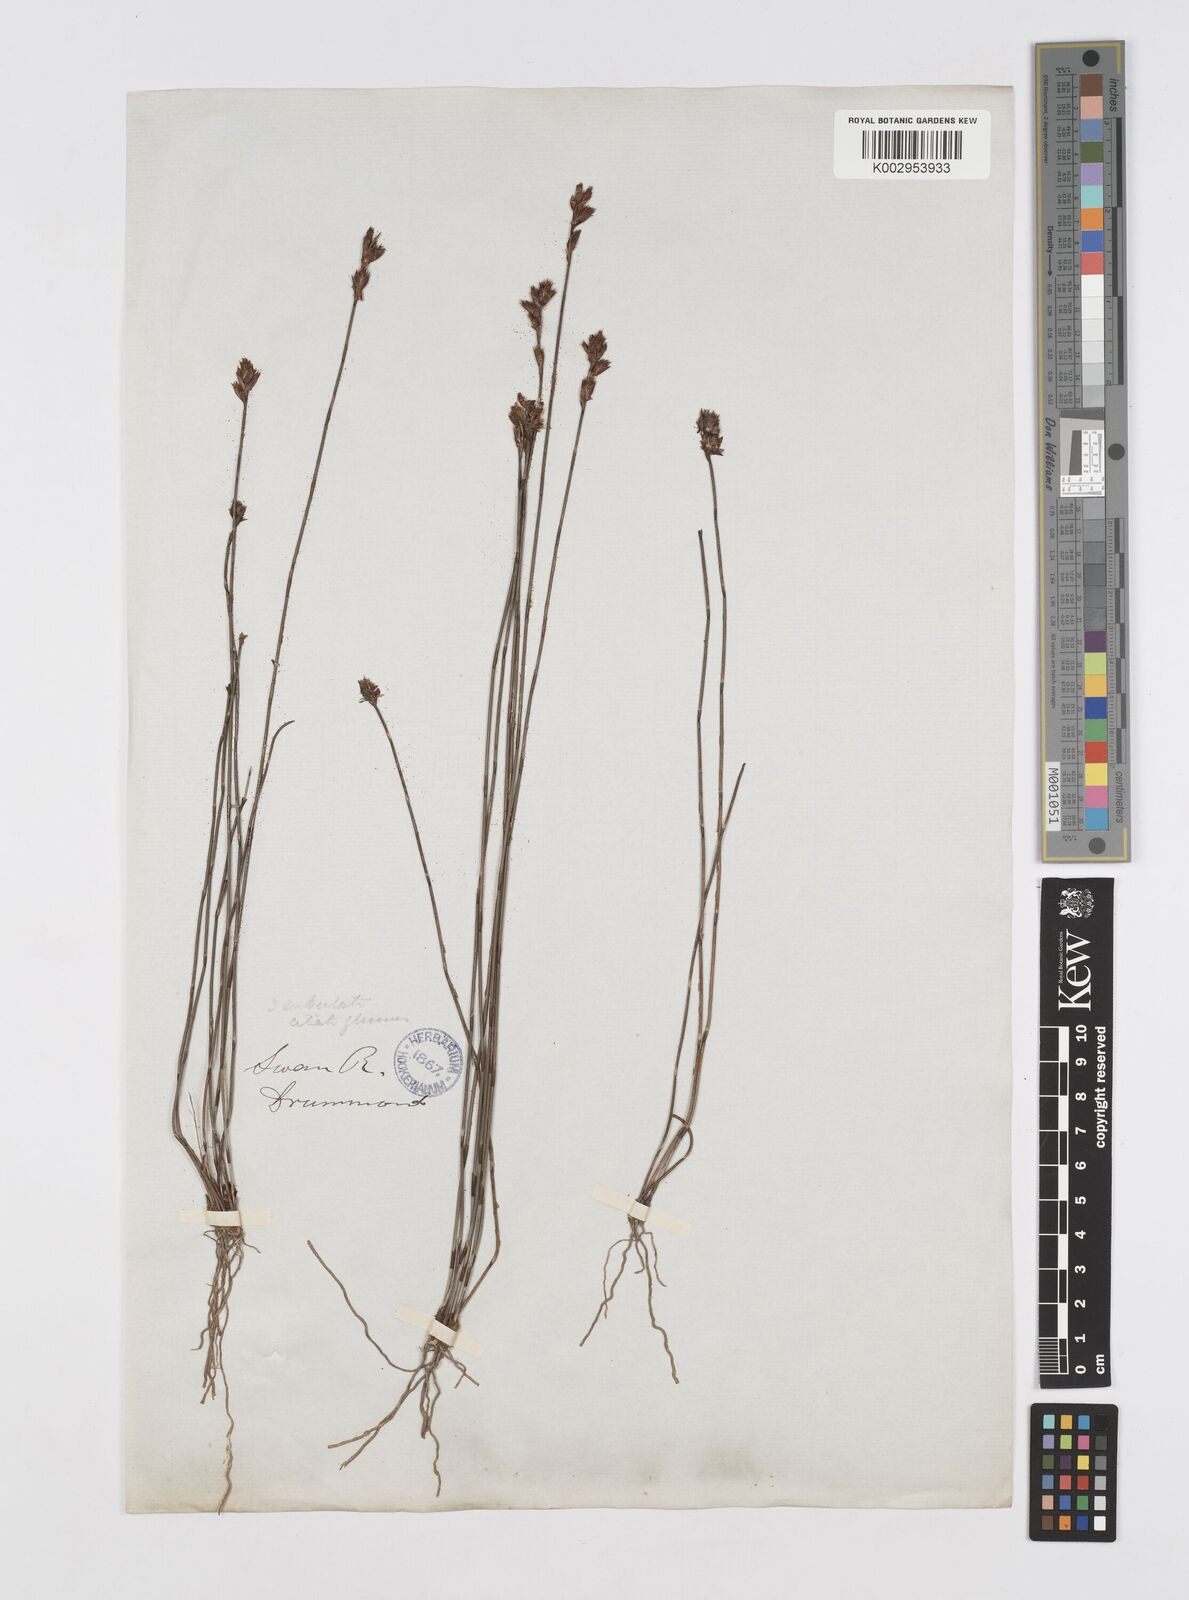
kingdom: Plantae
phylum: Tracheophyta
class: Liliopsida
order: Poales
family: Restionaceae
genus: Chaetanthus
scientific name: Chaetanthus aristatus
